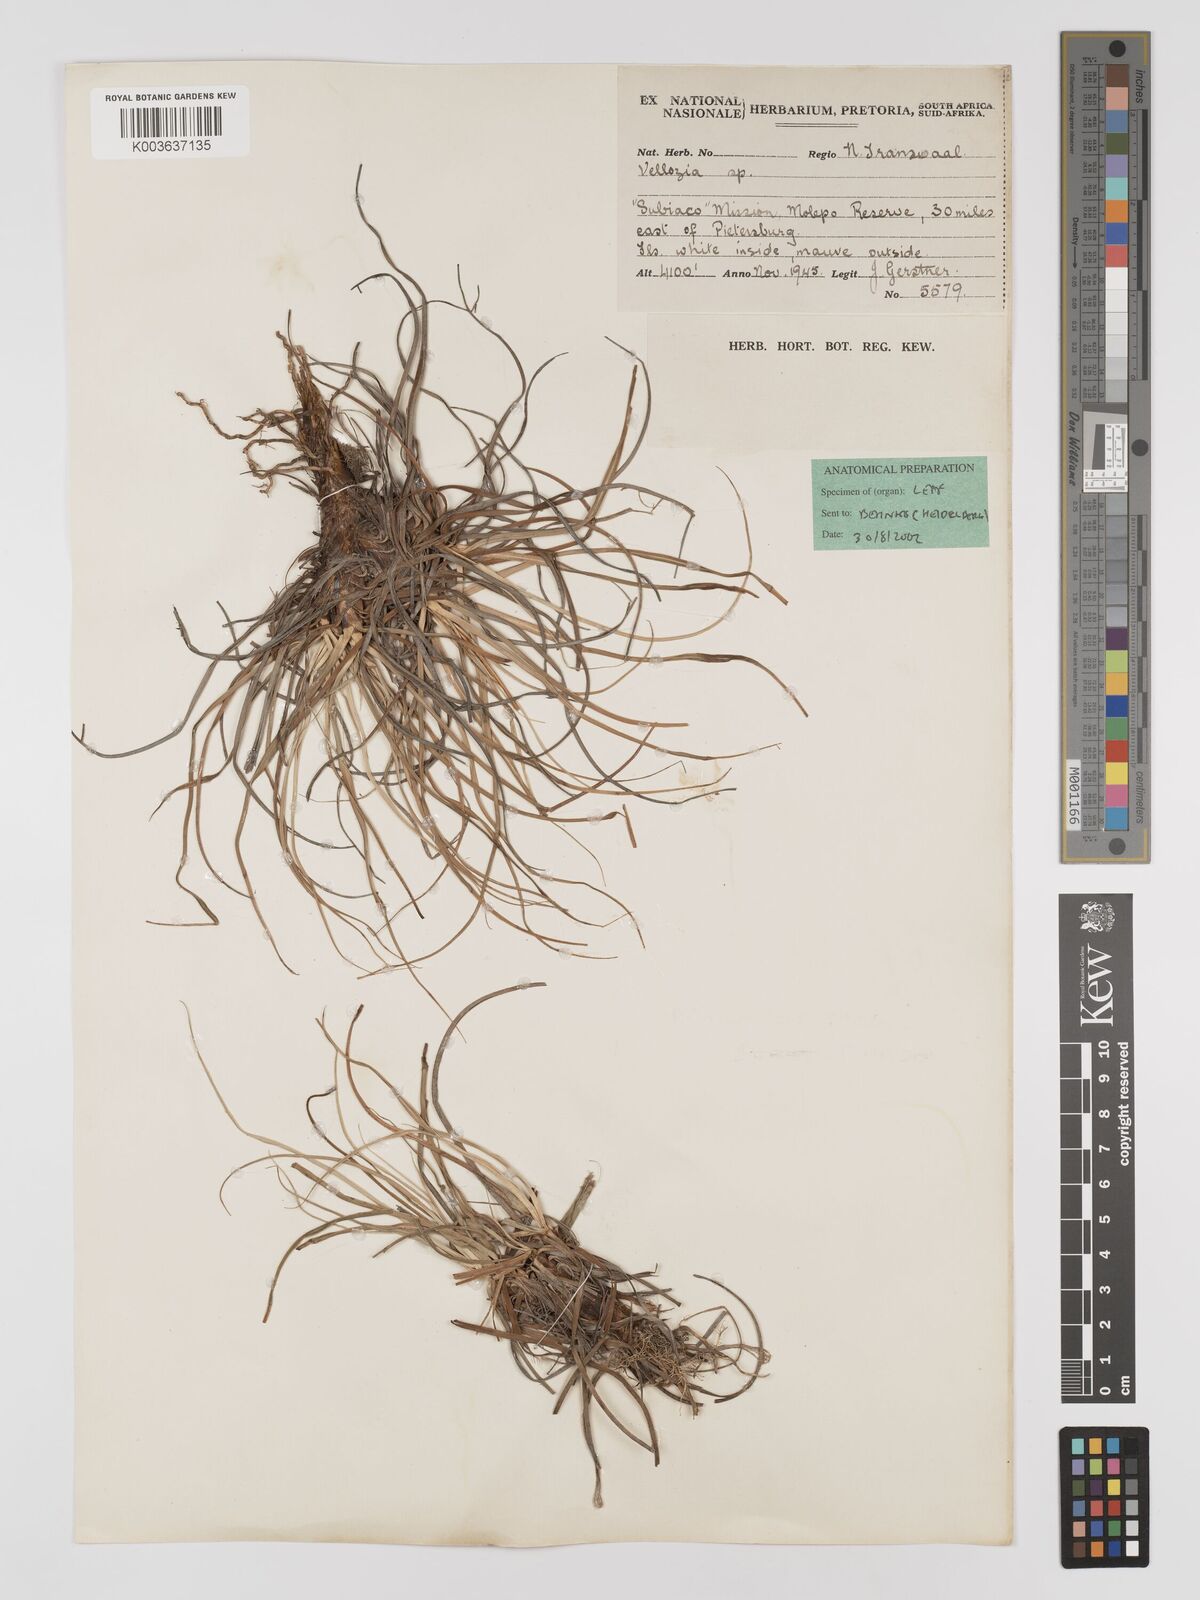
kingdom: Plantae
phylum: Tracheophyta
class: Liliopsida
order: Pandanales
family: Velloziaceae
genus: Xerophyta
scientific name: Xerophyta
